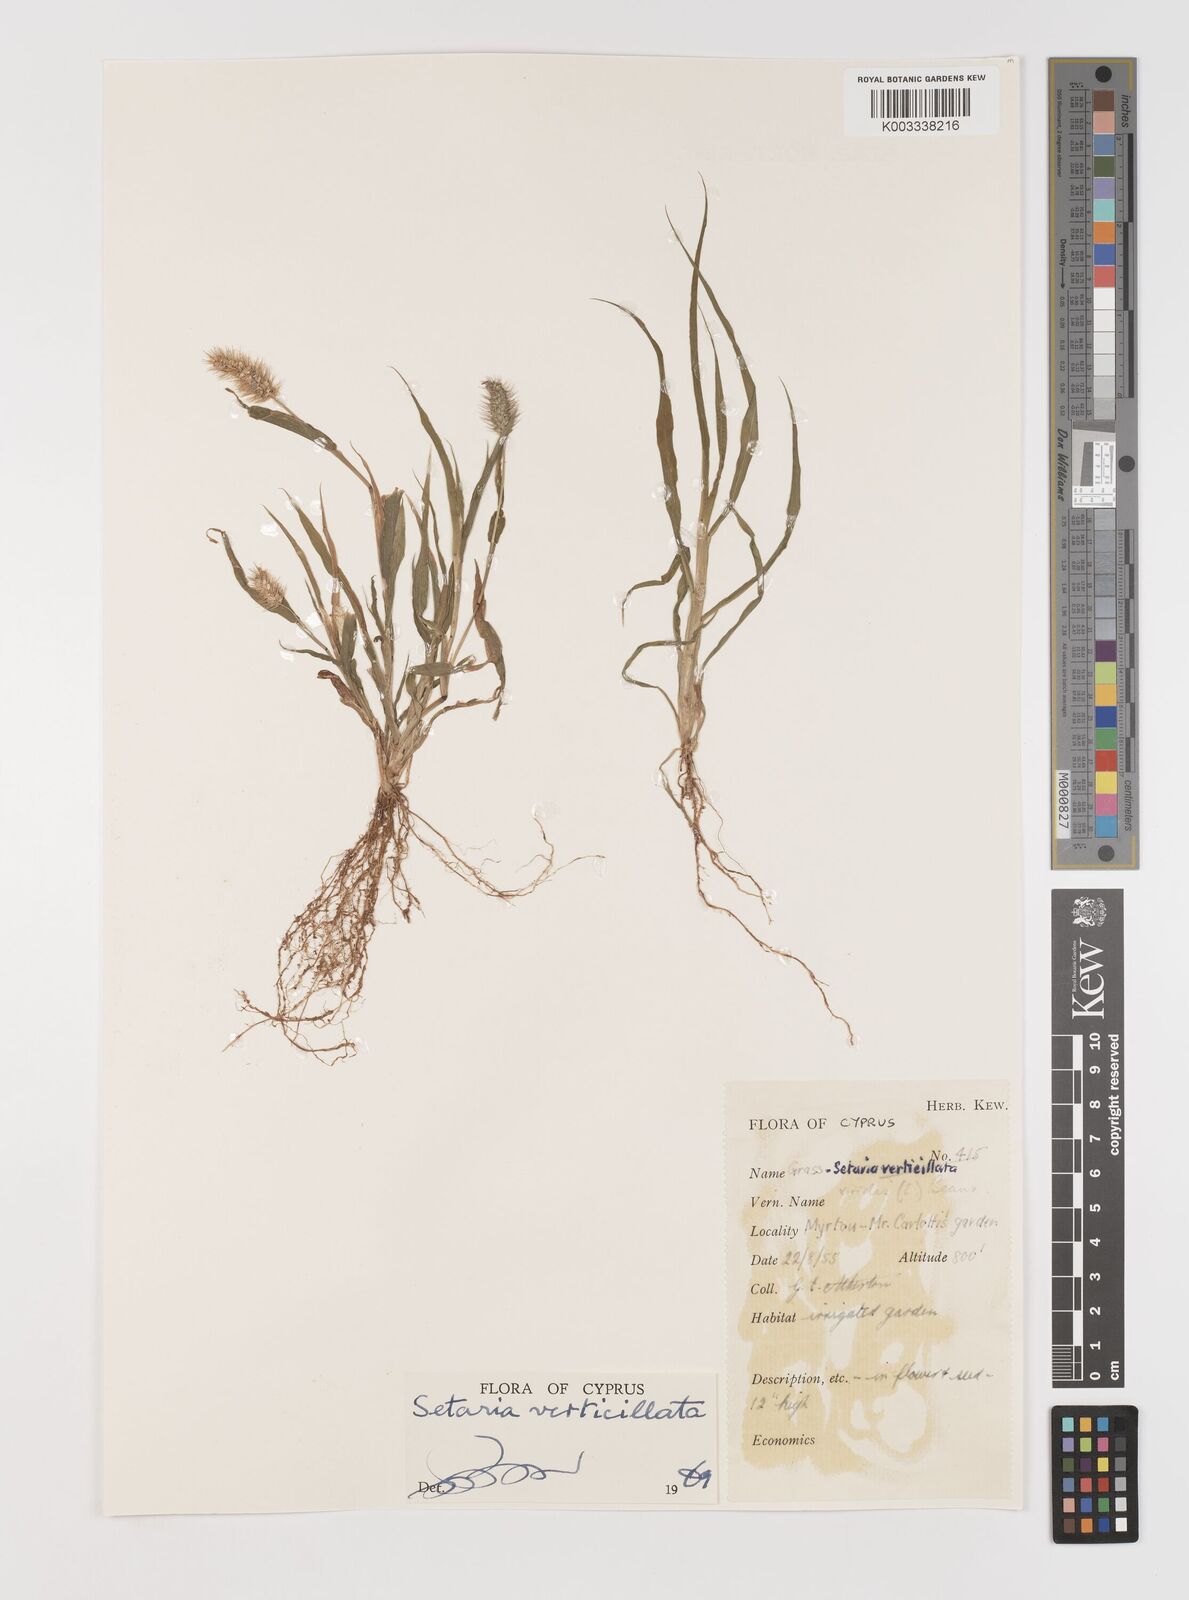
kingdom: Plantae
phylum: Tracheophyta
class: Liliopsida
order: Poales
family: Poaceae
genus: Setaria
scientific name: Setaria verticillata
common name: Hooked bristlegrass
